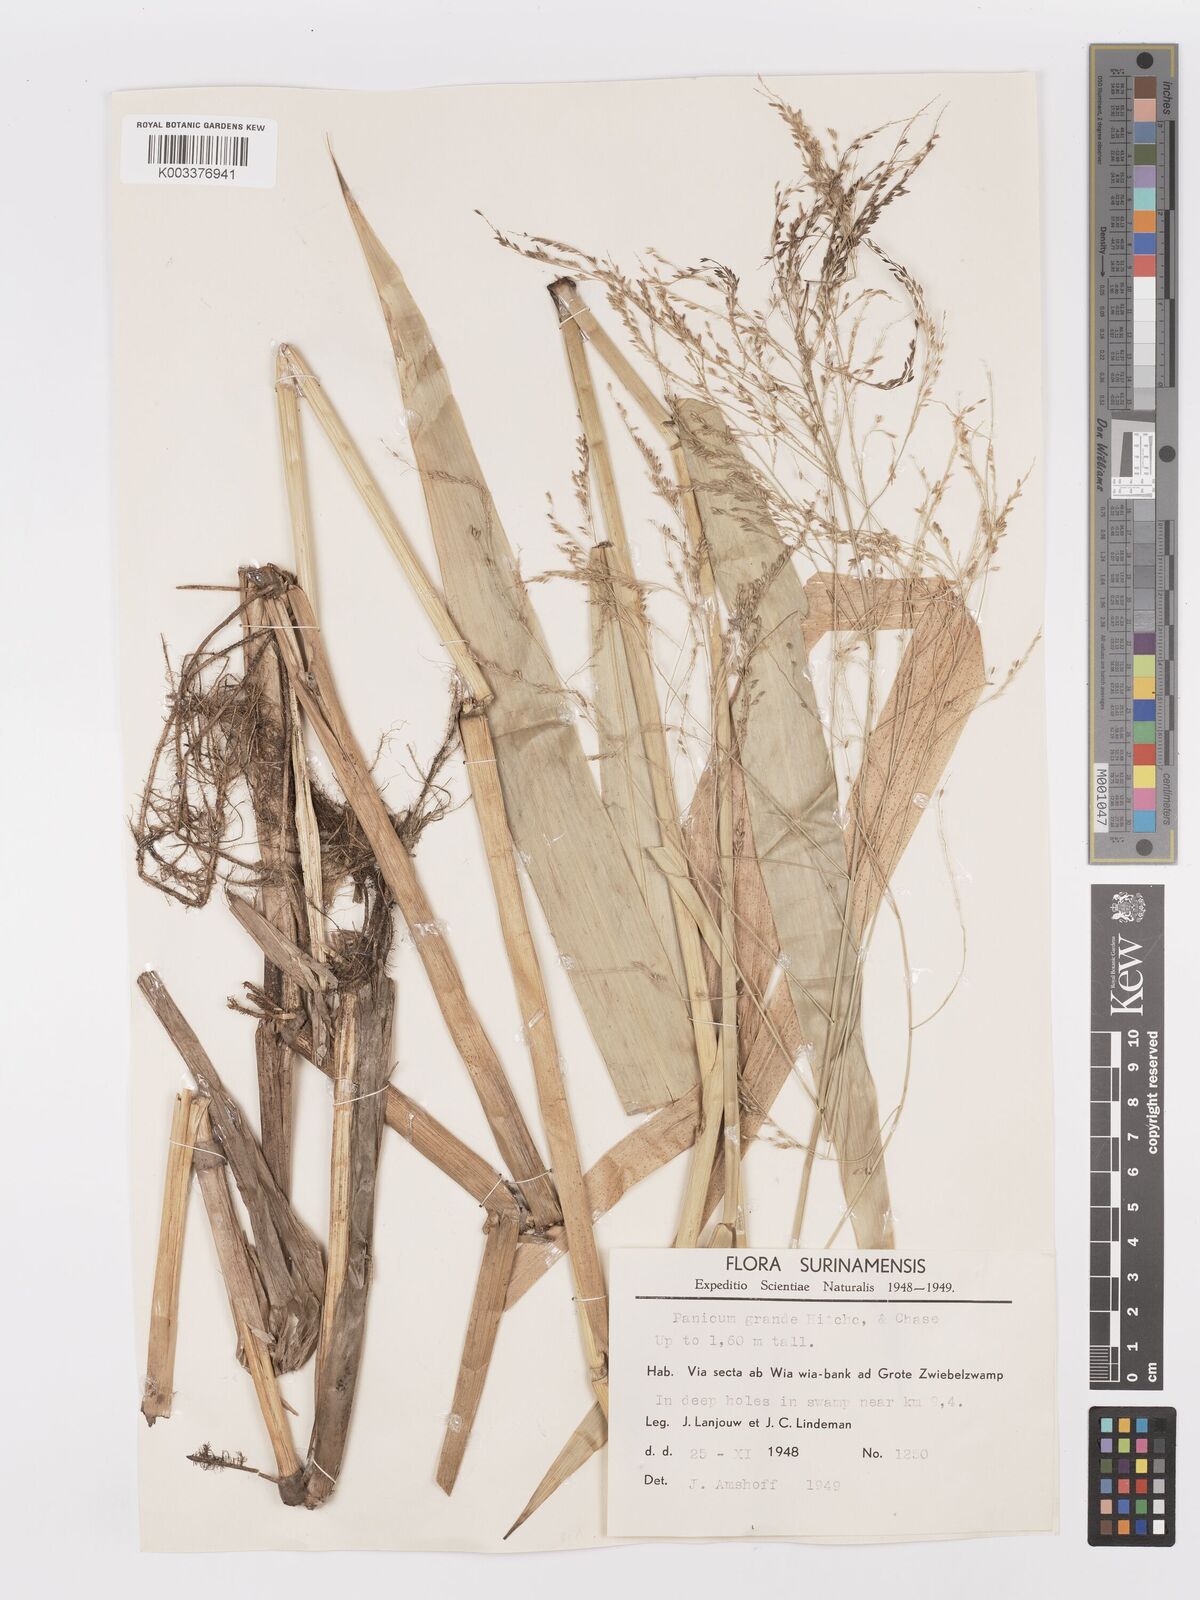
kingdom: Plantae
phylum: Tracheophyta
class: Liliopsida
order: Poales
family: Poaceae
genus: Panicum
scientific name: Panicum subalbidum
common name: Elbow buffalo grass
